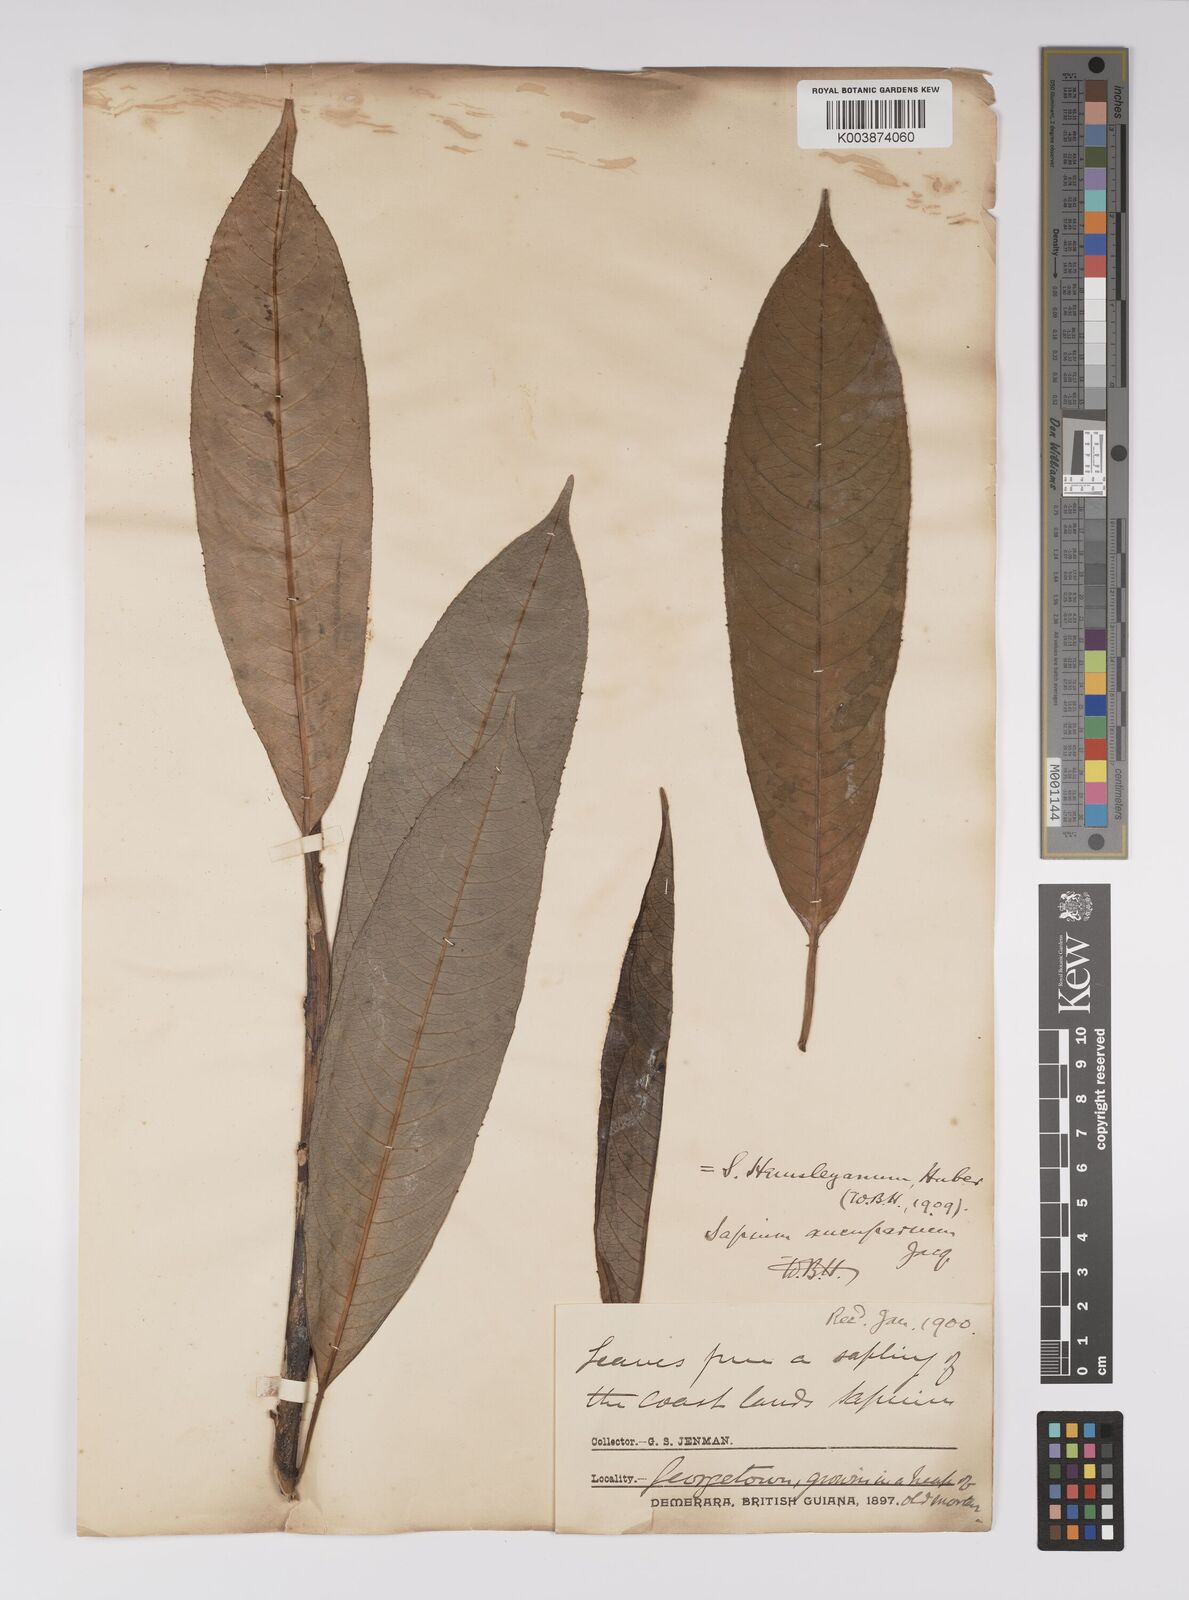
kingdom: Plantae
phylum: Tracheophyta
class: Magnoliopsida
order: Malpighiales
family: Euphorbiaceae
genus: Sapium
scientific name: Sapium glandulosum
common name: Milktree
